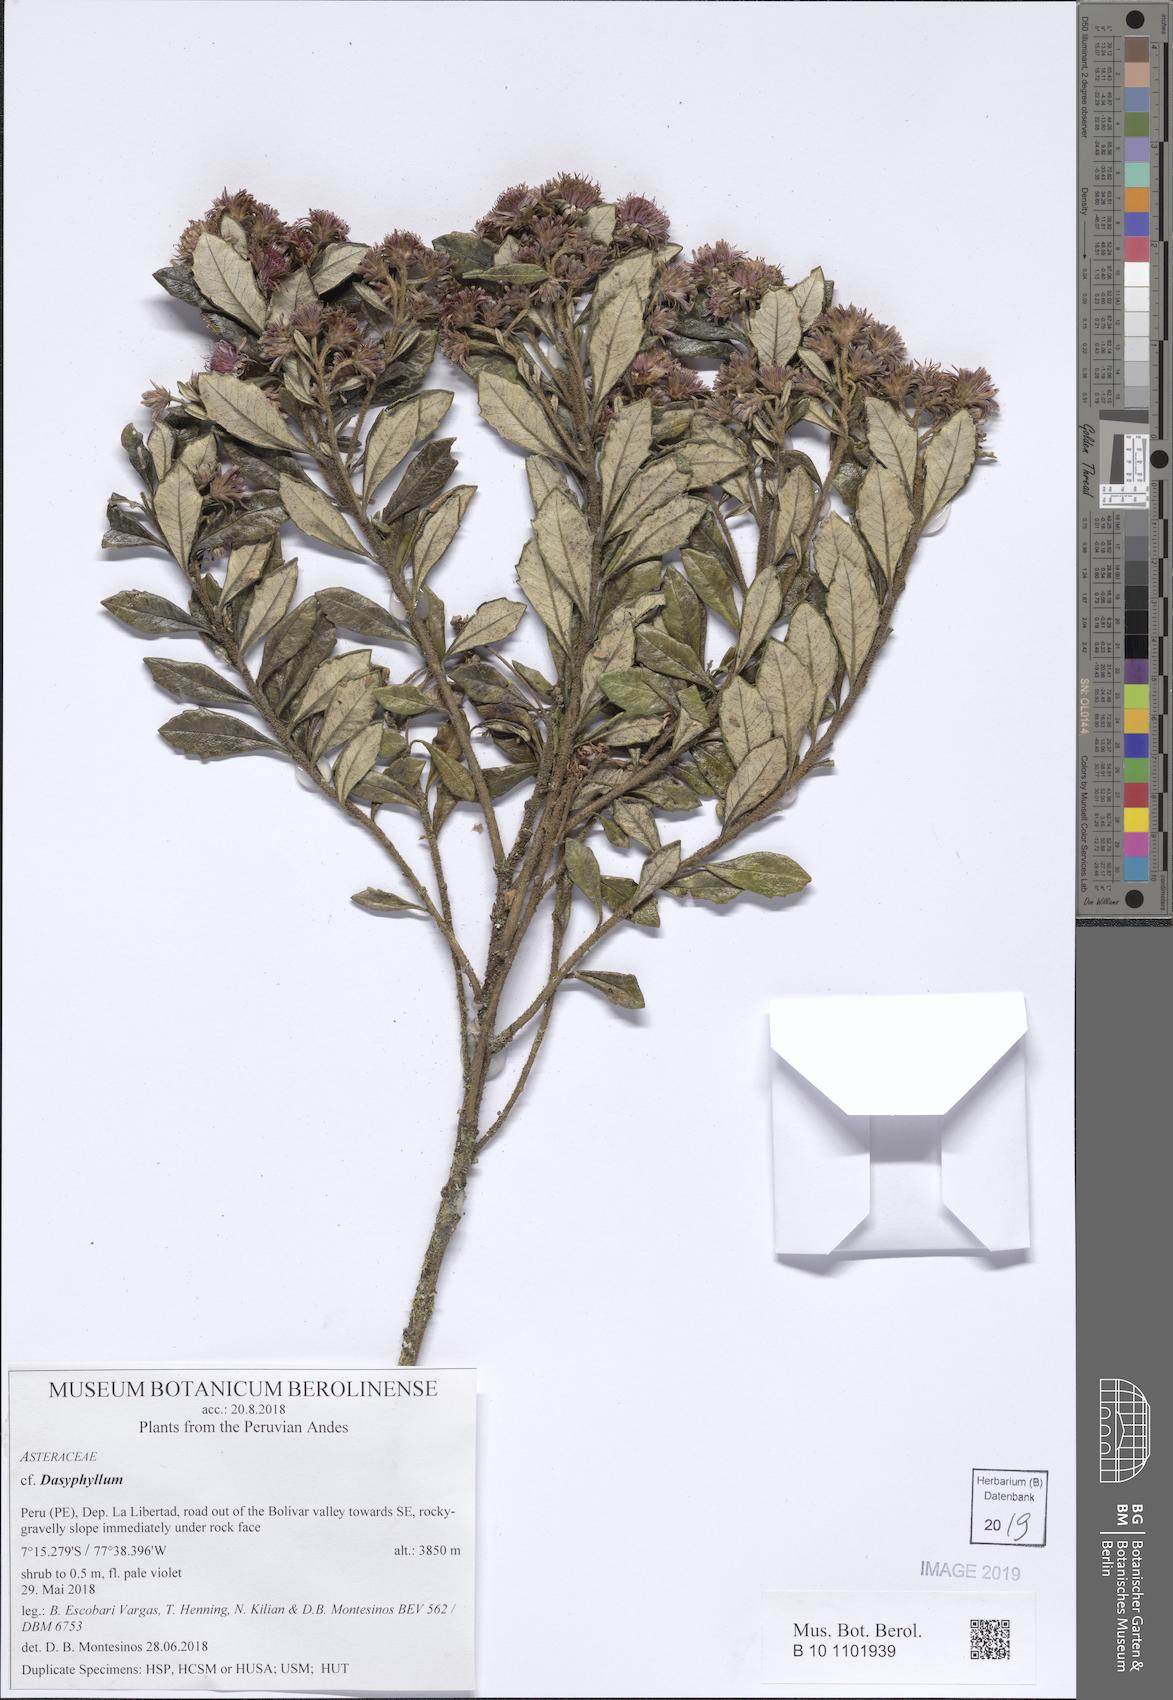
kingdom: Plantae
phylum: Tracheophyta
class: Magnoliopsida
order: Asterales
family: Asteraceae
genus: Dasyphyllum
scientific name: Dasyphyllum
